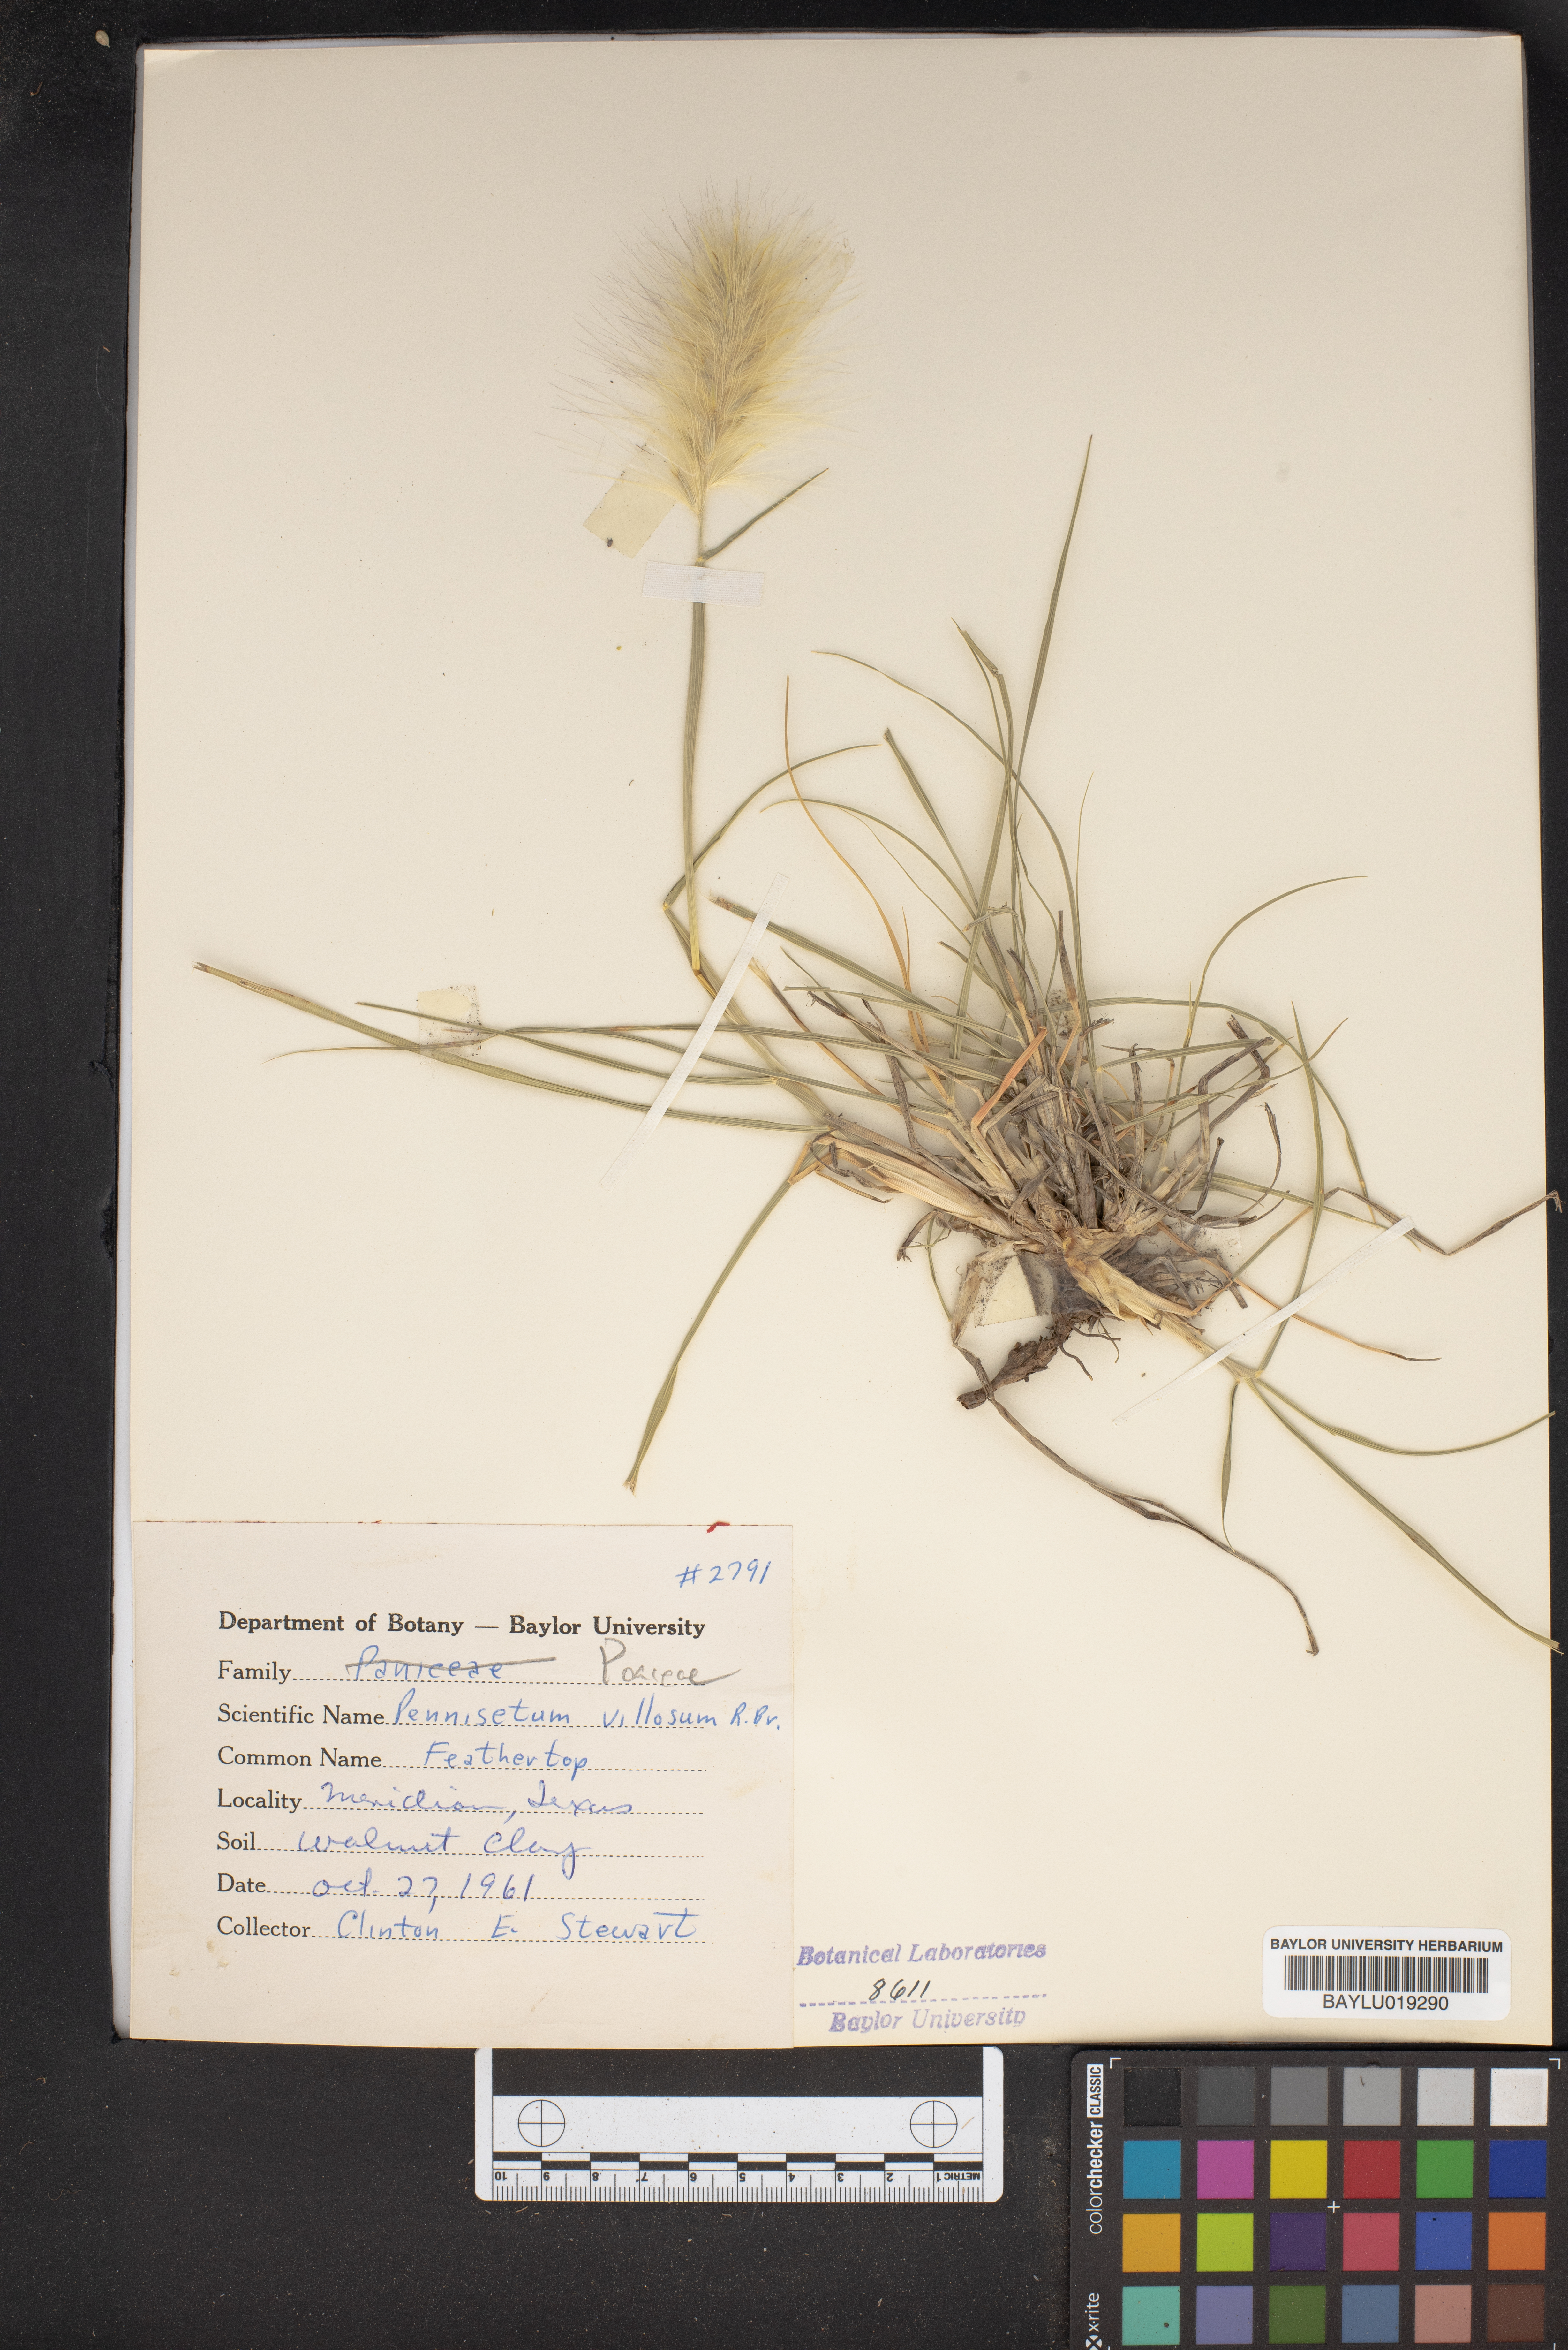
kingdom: Plantae
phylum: Tracheophyta
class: Liliopsida
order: Poales
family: Poaceae
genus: Cenchrus
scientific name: Cenchrus longisetus
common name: Feathertop
